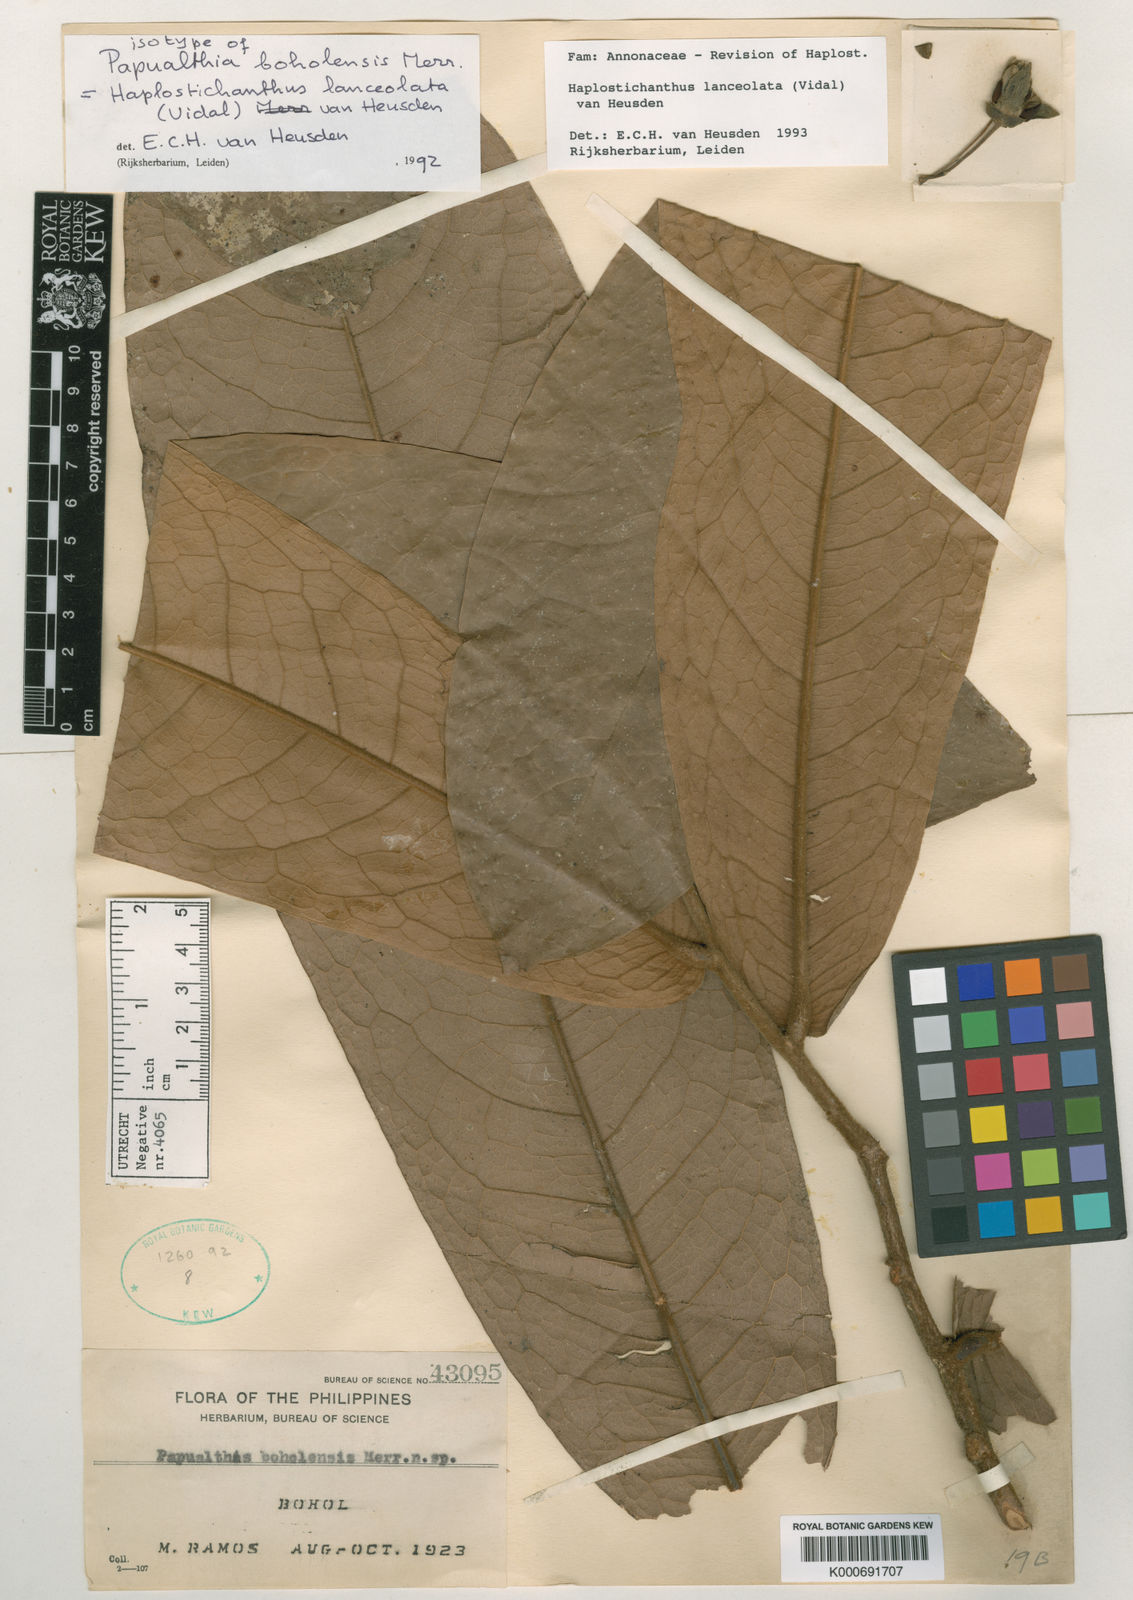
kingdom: Plantae
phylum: Tracheophyta
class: Magnoliopsida
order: Magnoliales
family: Annonaceae
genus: Haplostichanthus
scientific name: Haplostichanthus lanceolata
